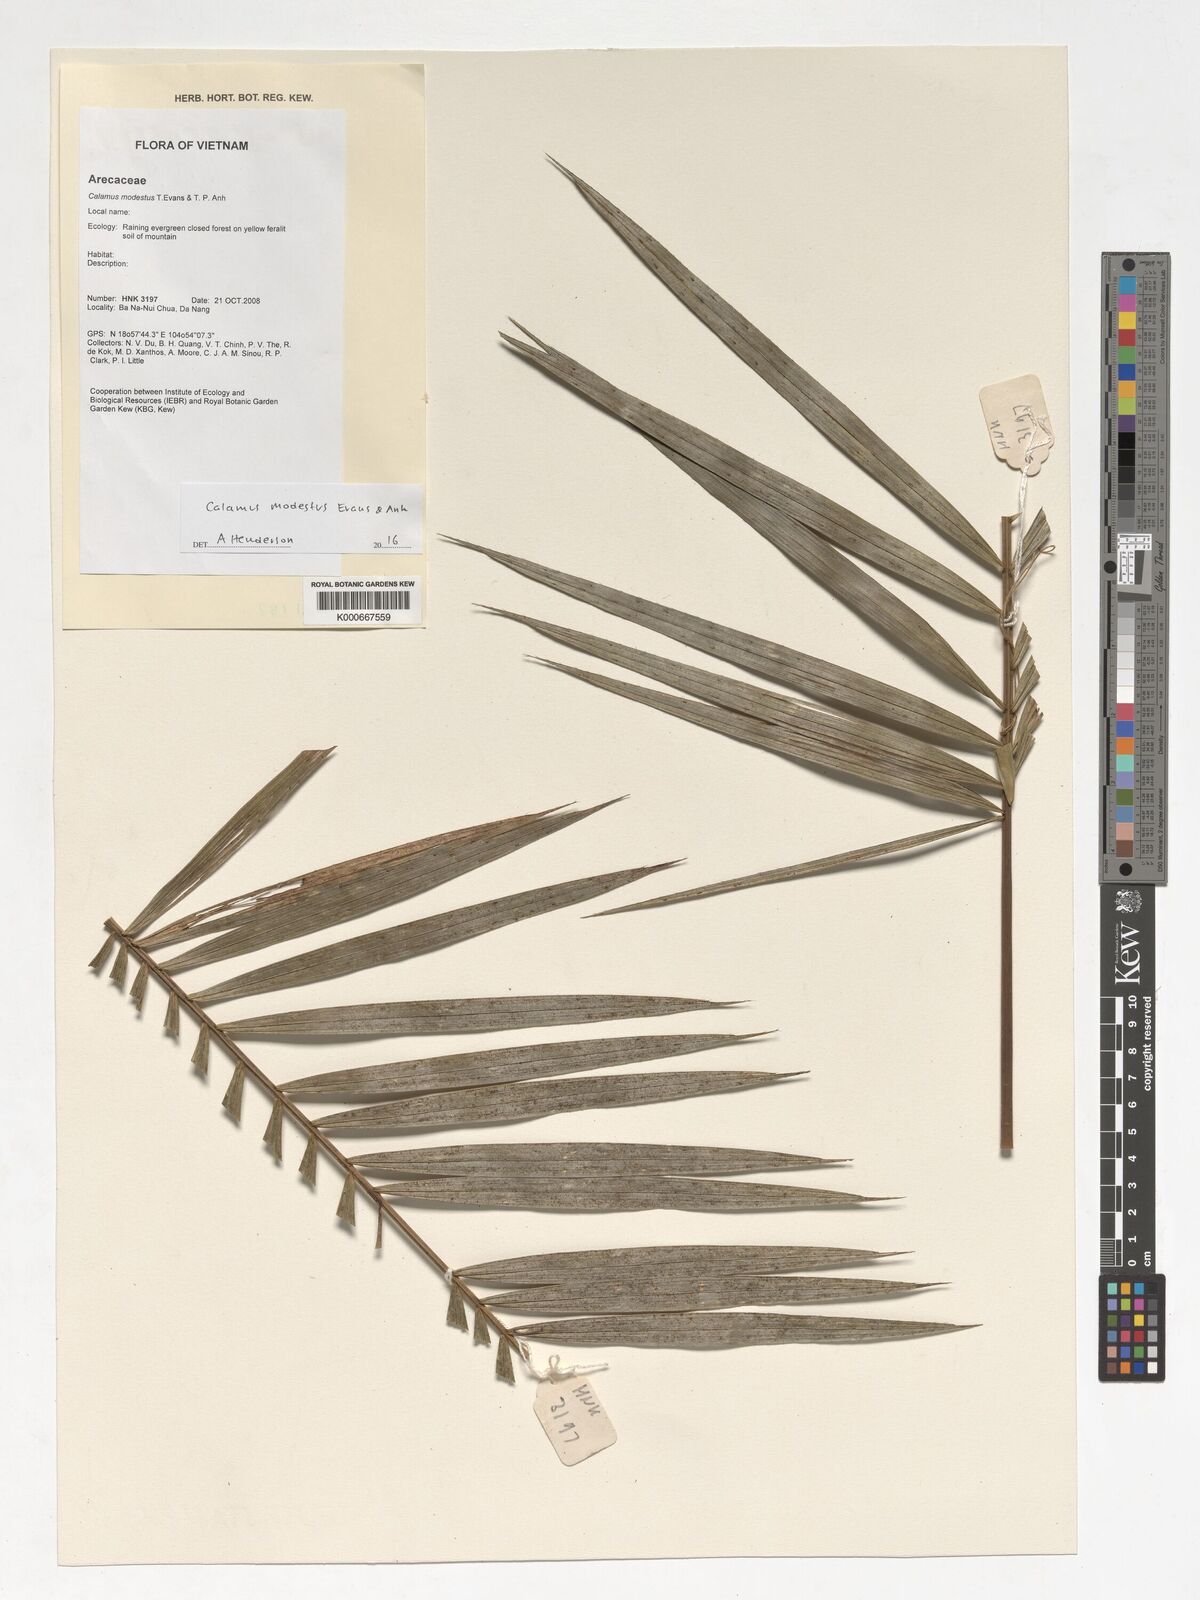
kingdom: Plantae
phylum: Tracheophyta
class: Liliopsida
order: Arecales
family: Arecaceae
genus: Calamus
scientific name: Calamus modestus
